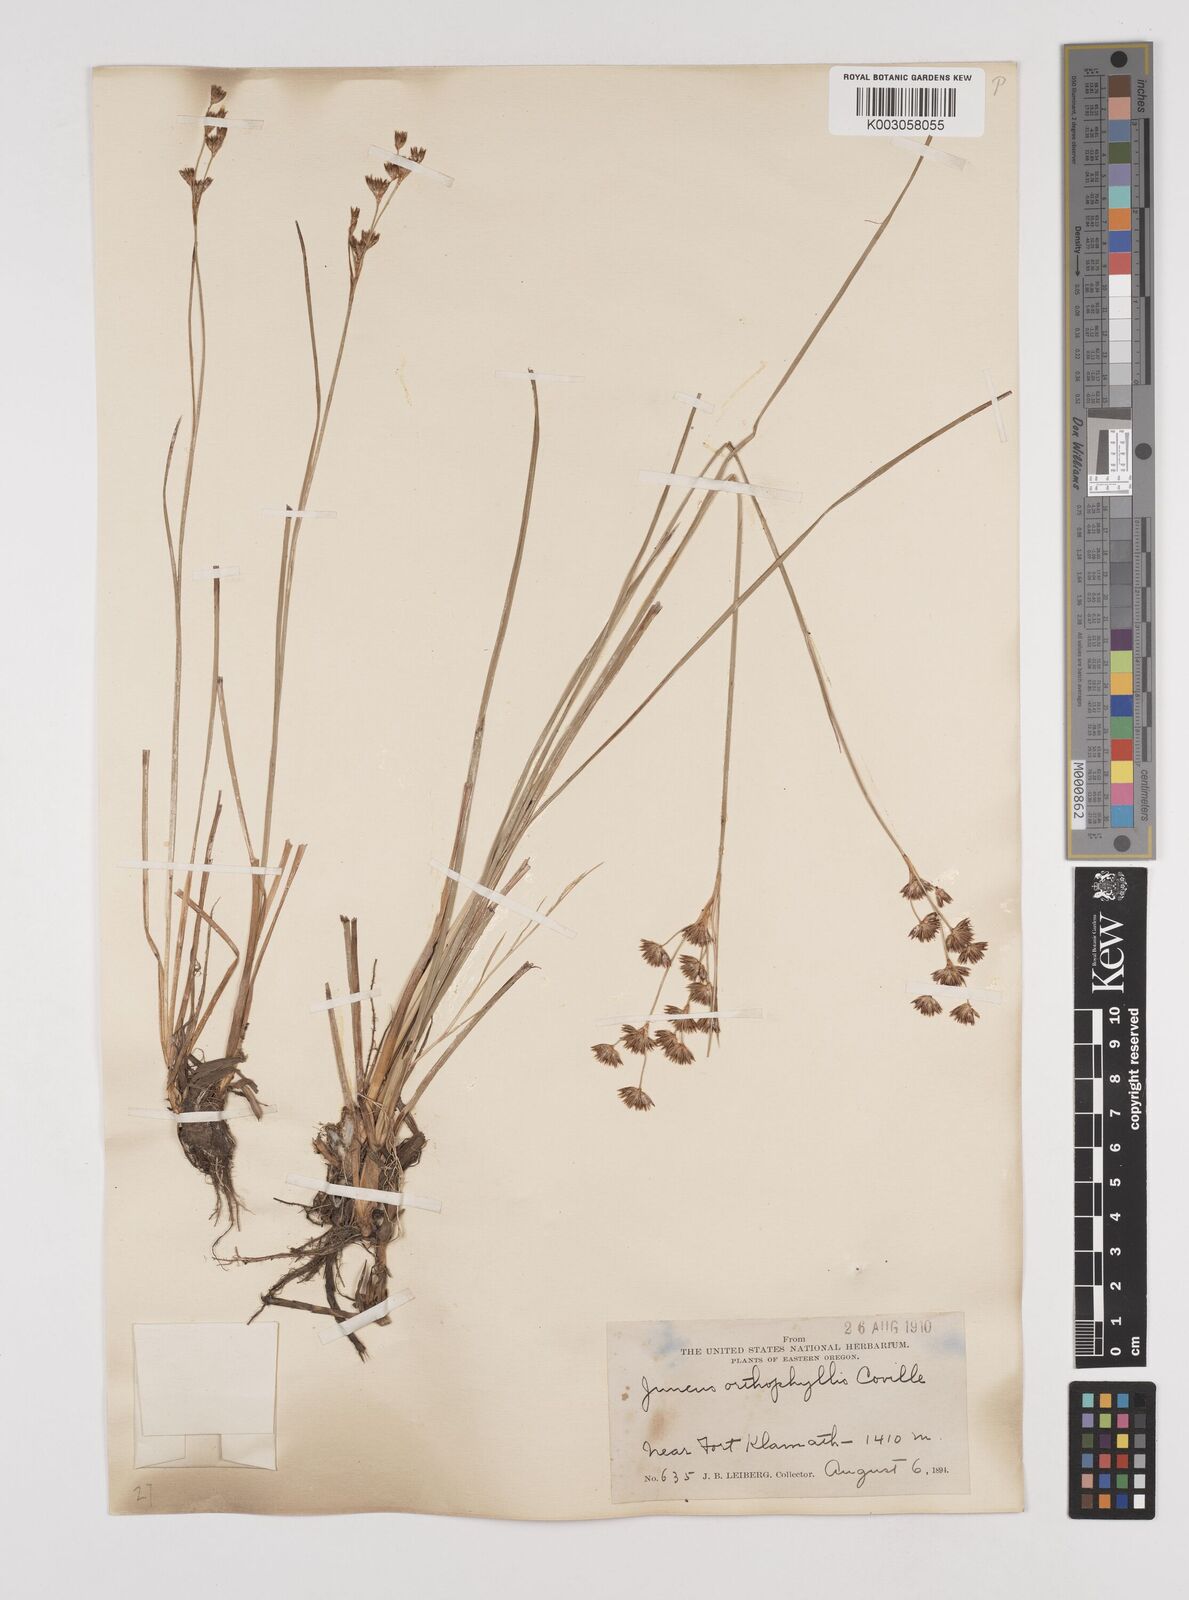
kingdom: Plantae
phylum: Tracheophyta
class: Liliopsida
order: Poales
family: Juncaceae
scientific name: Juncaceae
